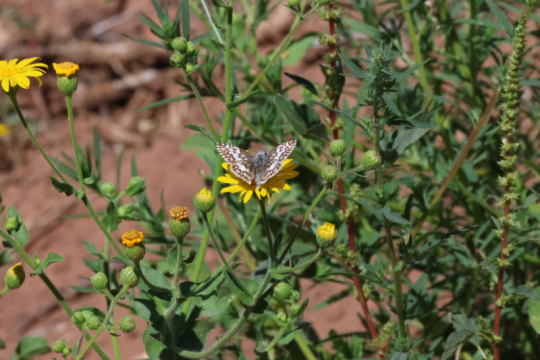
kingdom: Animalia
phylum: Arthropoda
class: Insecta
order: Lepidoptera
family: Hesperiidae
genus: Pyrgus
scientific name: Pyrgus communis
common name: Common Checkered-Skipper
